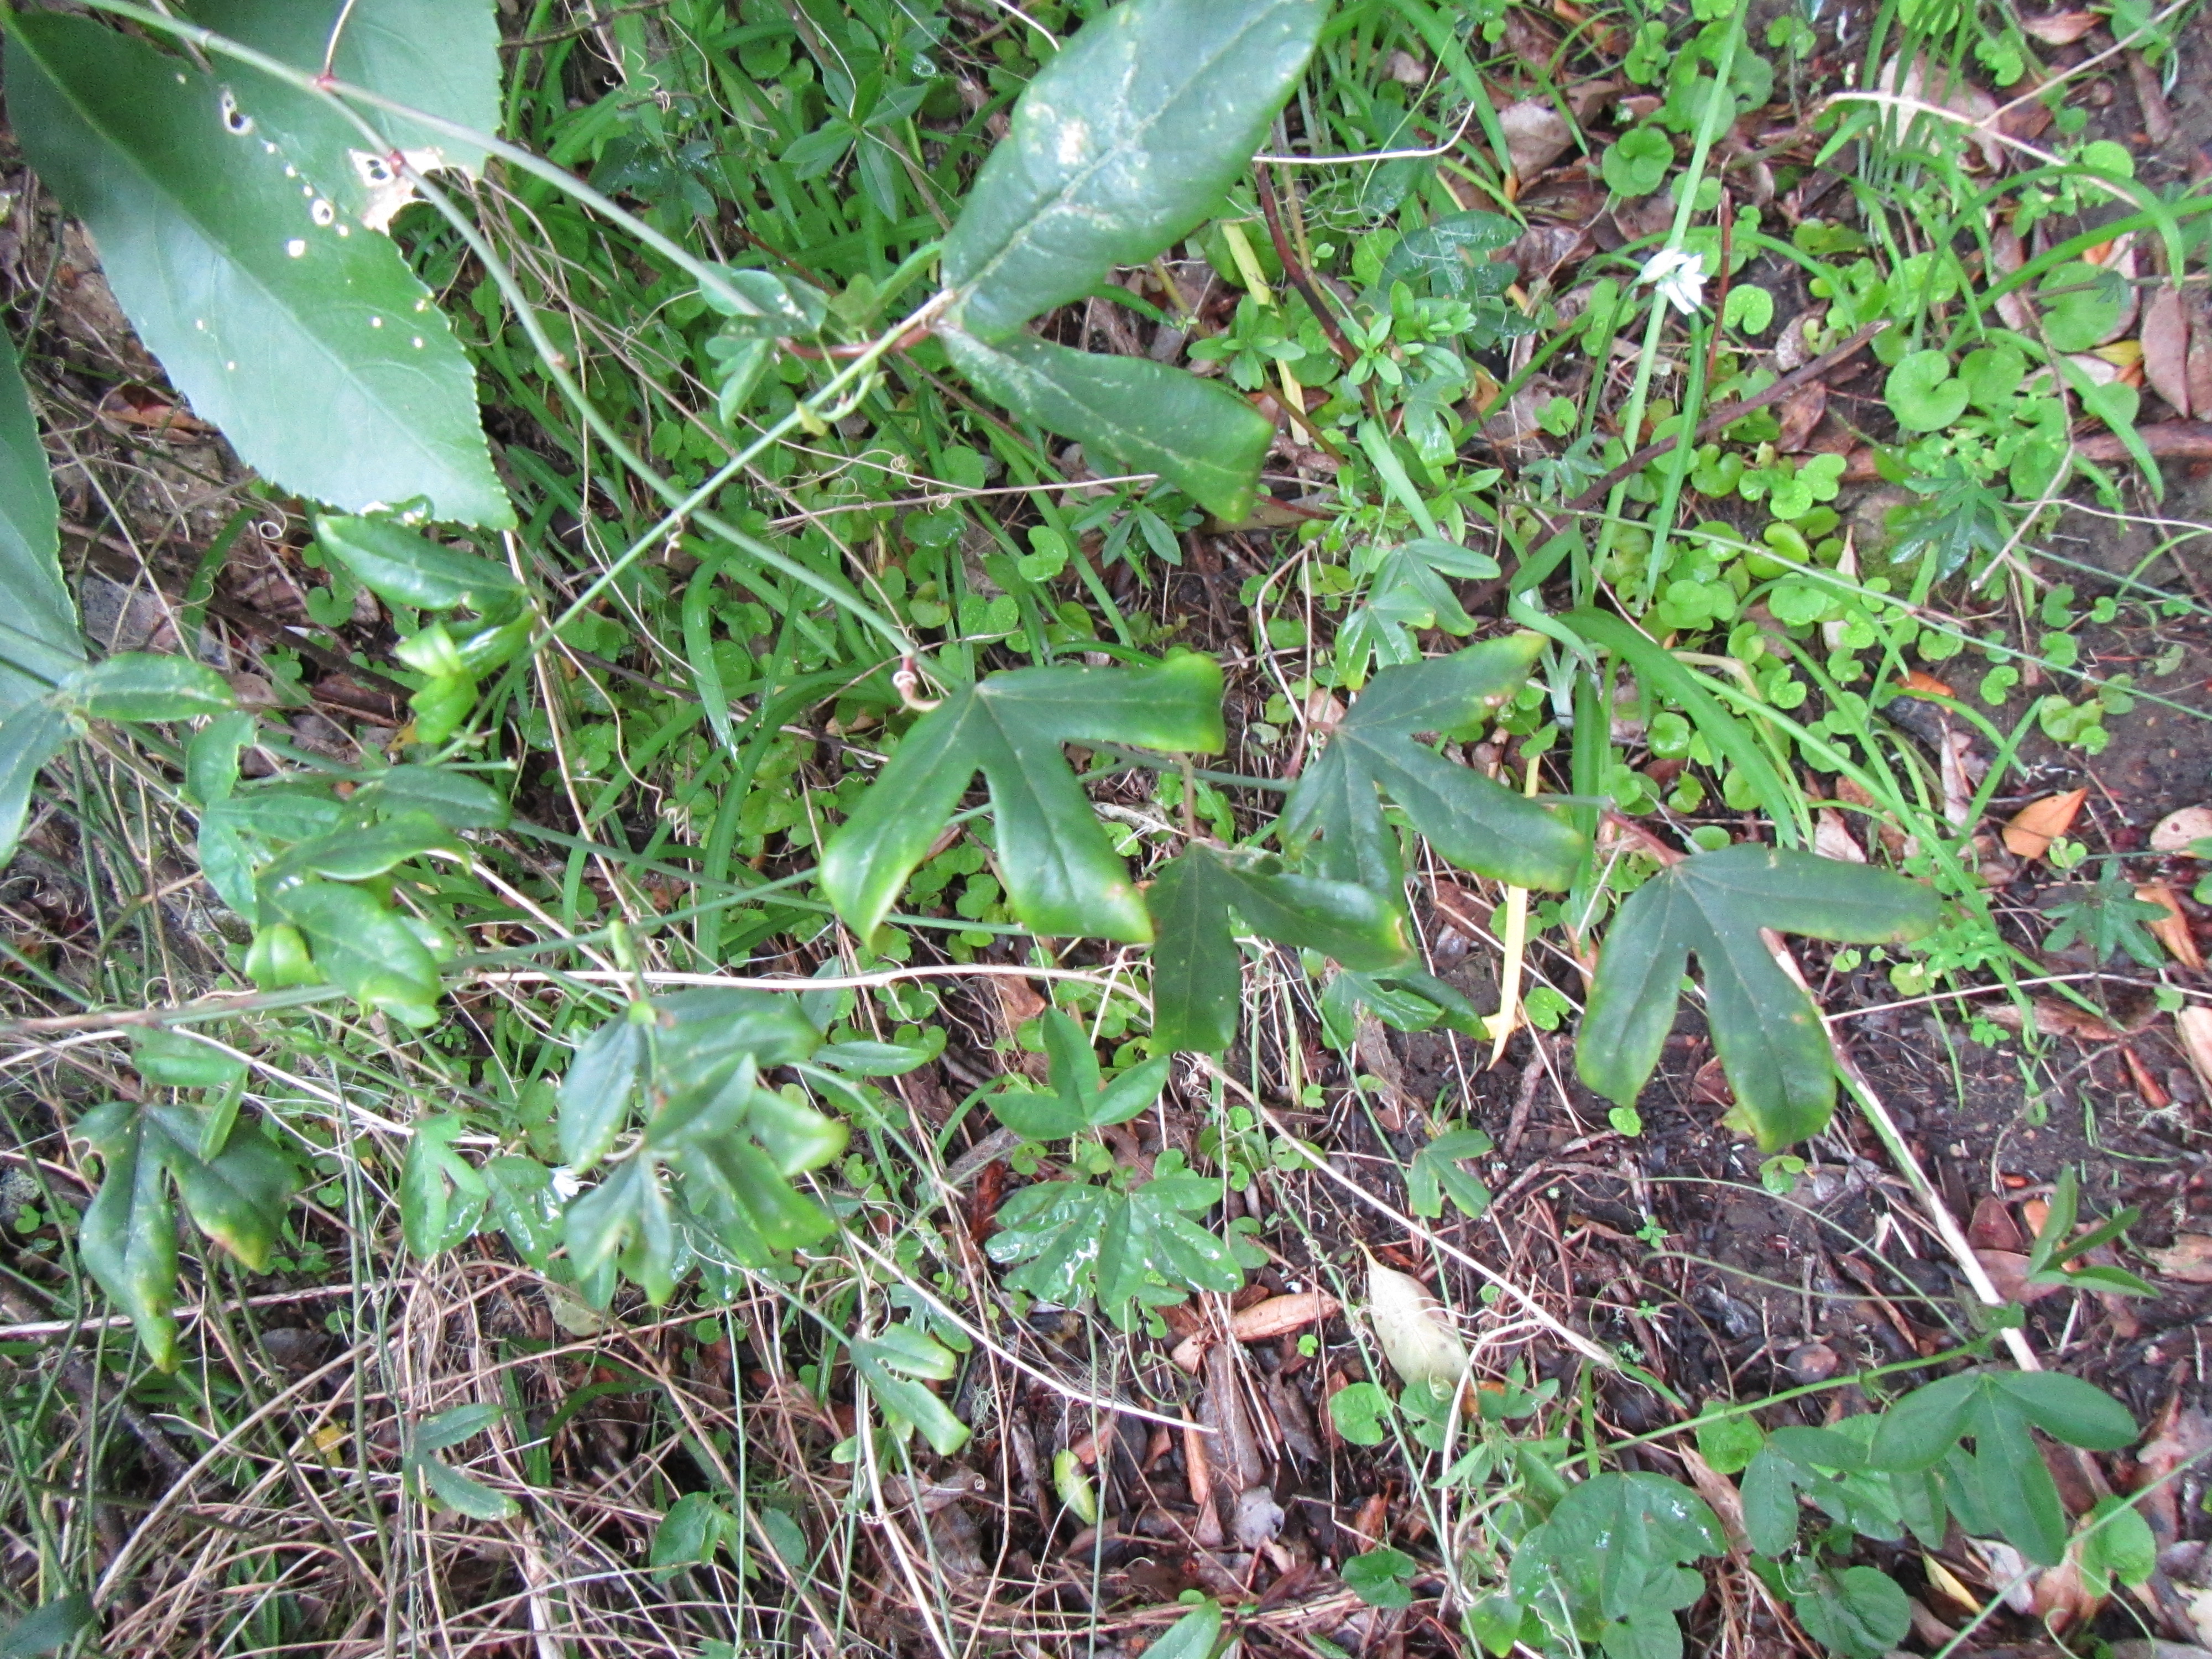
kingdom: Plantae
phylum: Tracheophyta
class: Magnoliopsida
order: Malpighiales
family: Passifloraceae
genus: Passiflora
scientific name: Passiflora caerulea
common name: Blue passionflower
